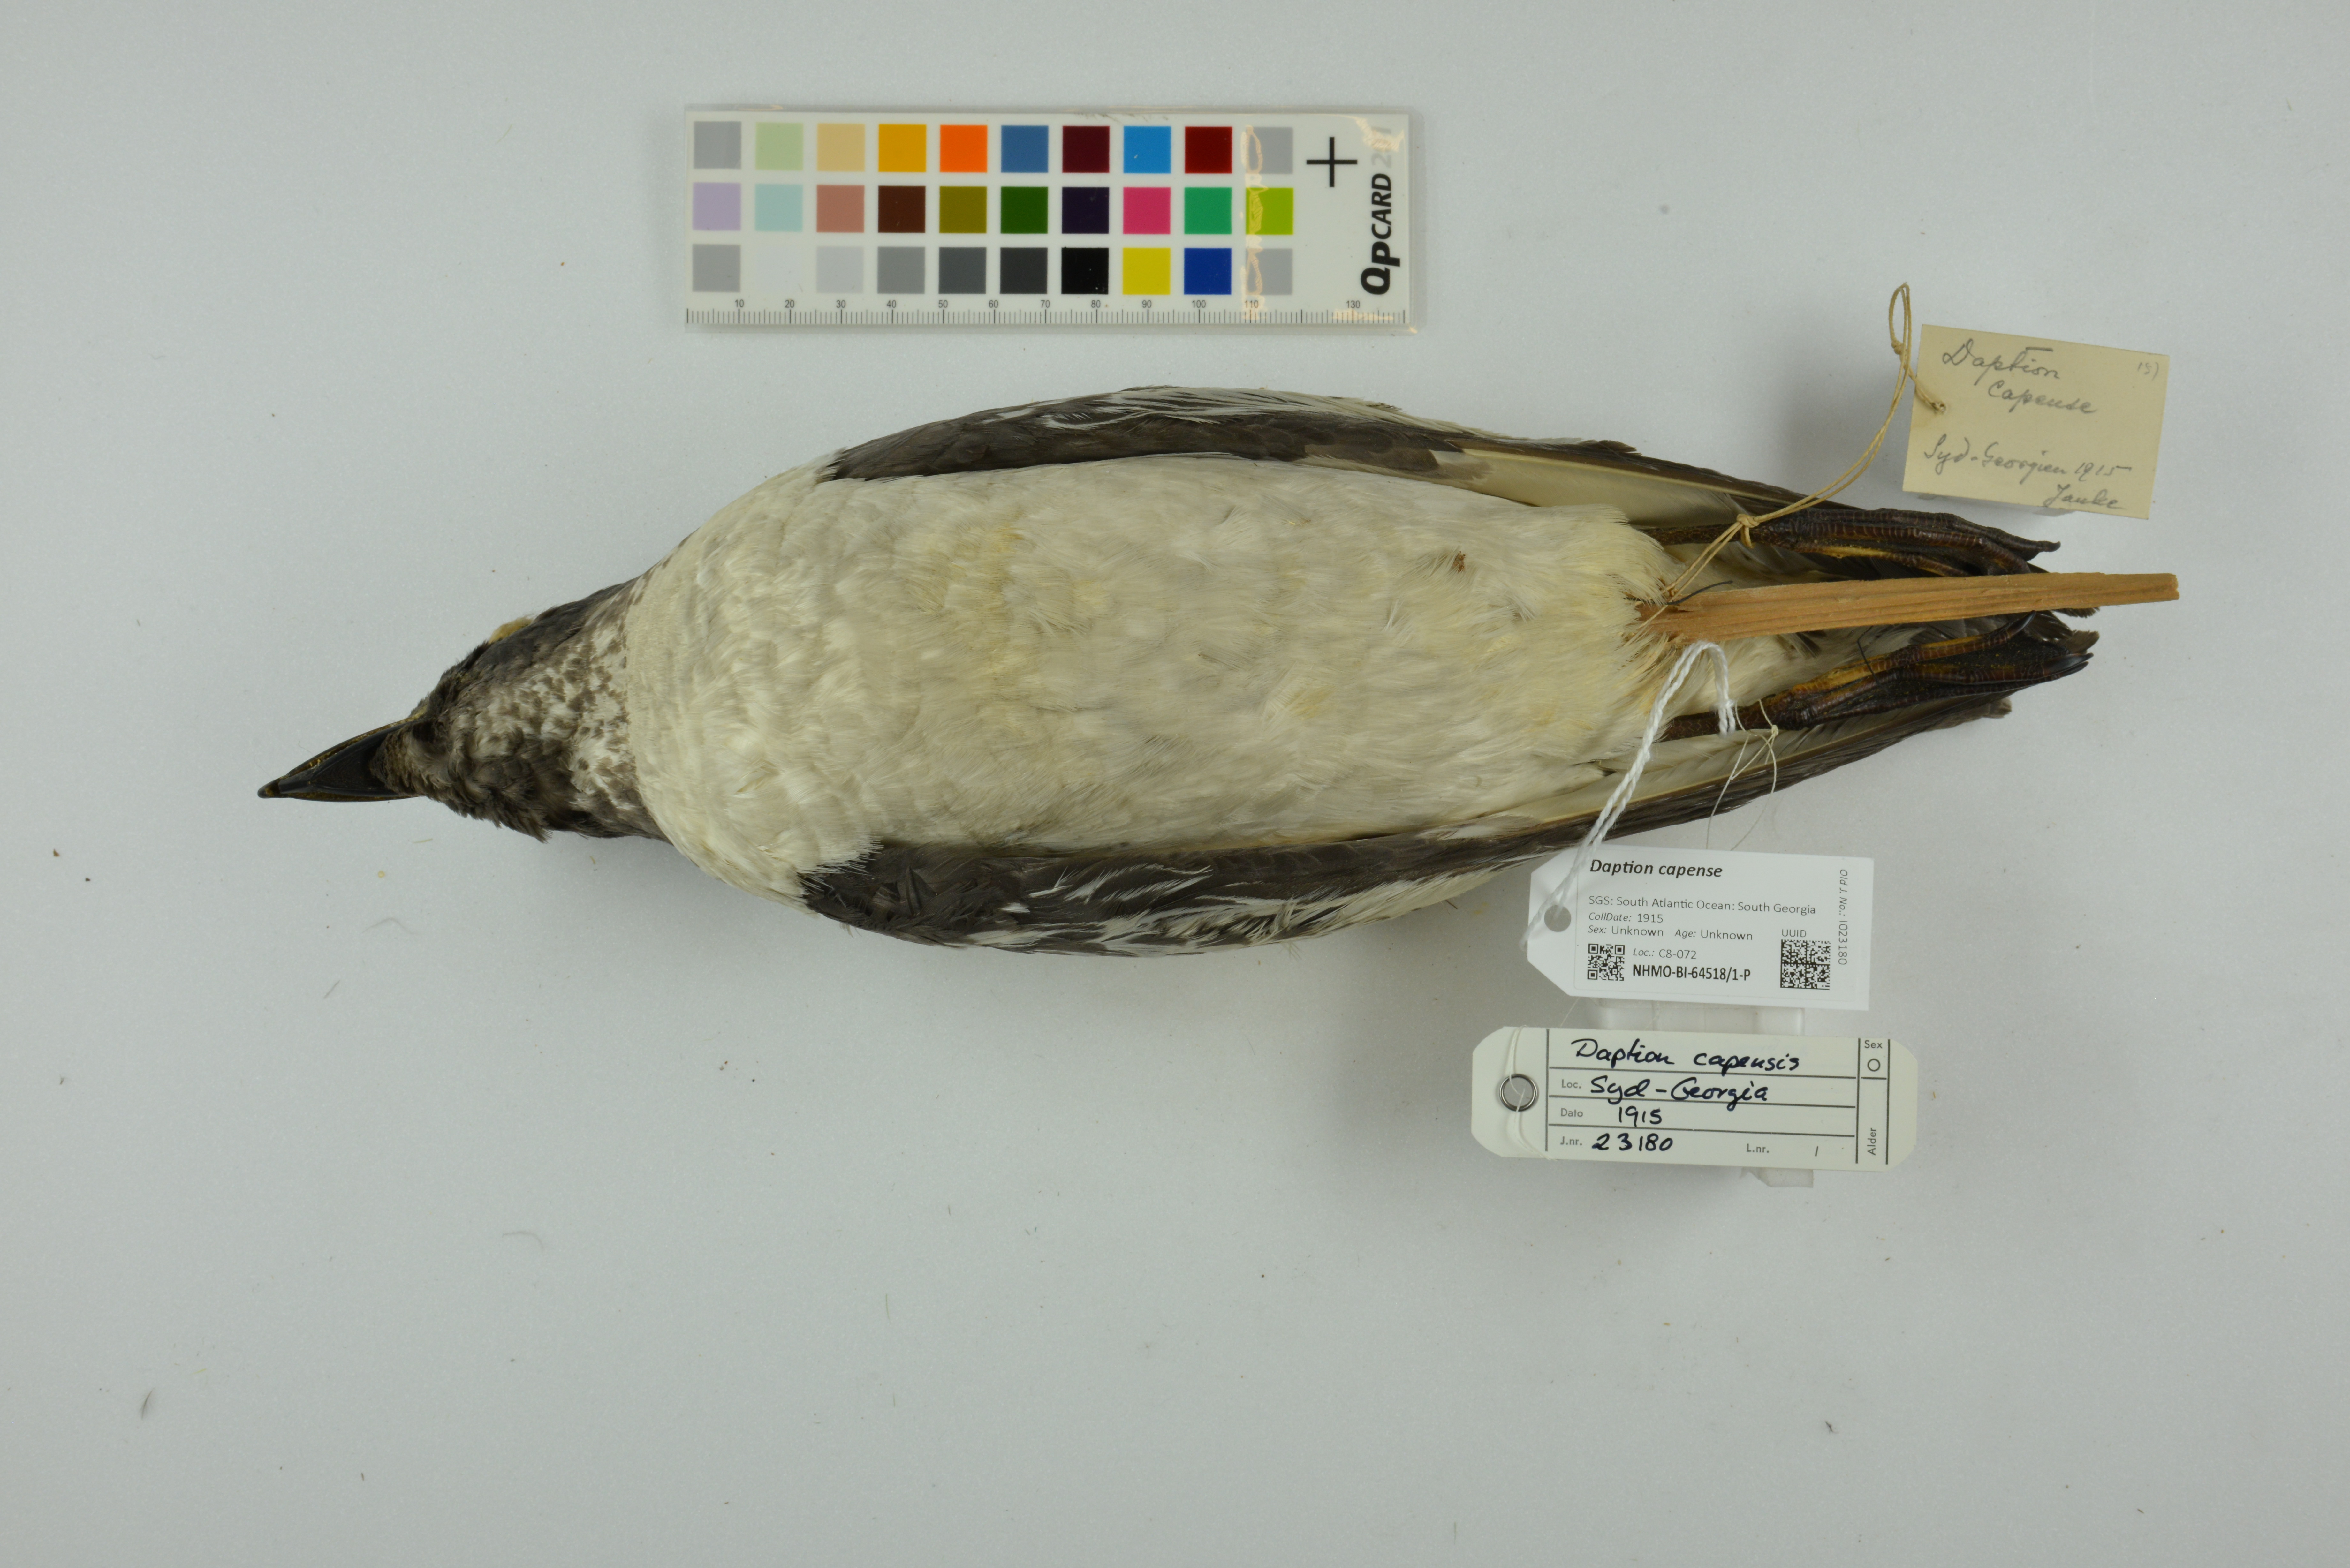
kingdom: Animalia
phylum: Chordata
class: Aves
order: Procellariiformes
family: Procellariidae
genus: Daption
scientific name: Daption capense
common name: Cape petrel
